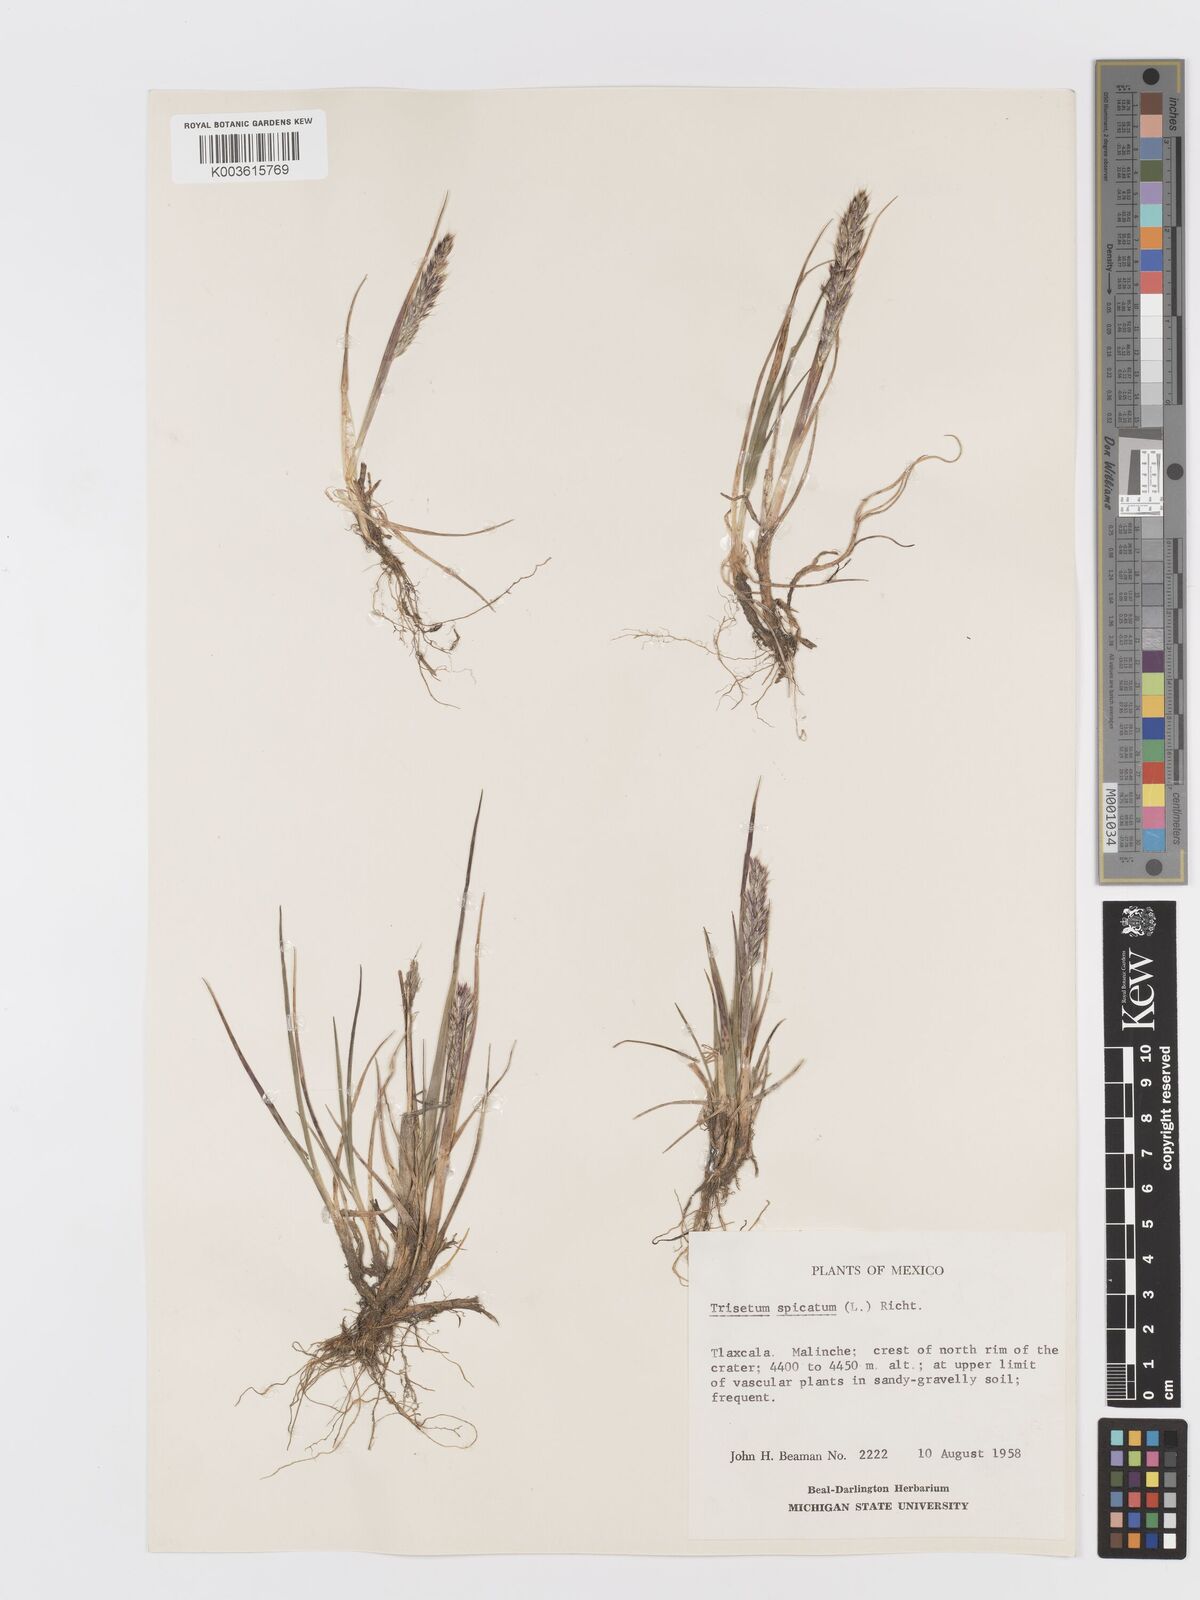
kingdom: Plantae
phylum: Tracheophyta
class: Liliopsida
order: Poales
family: Poaceae
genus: Koeleria
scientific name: Koeleria spicata
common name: Mountain trisetum
